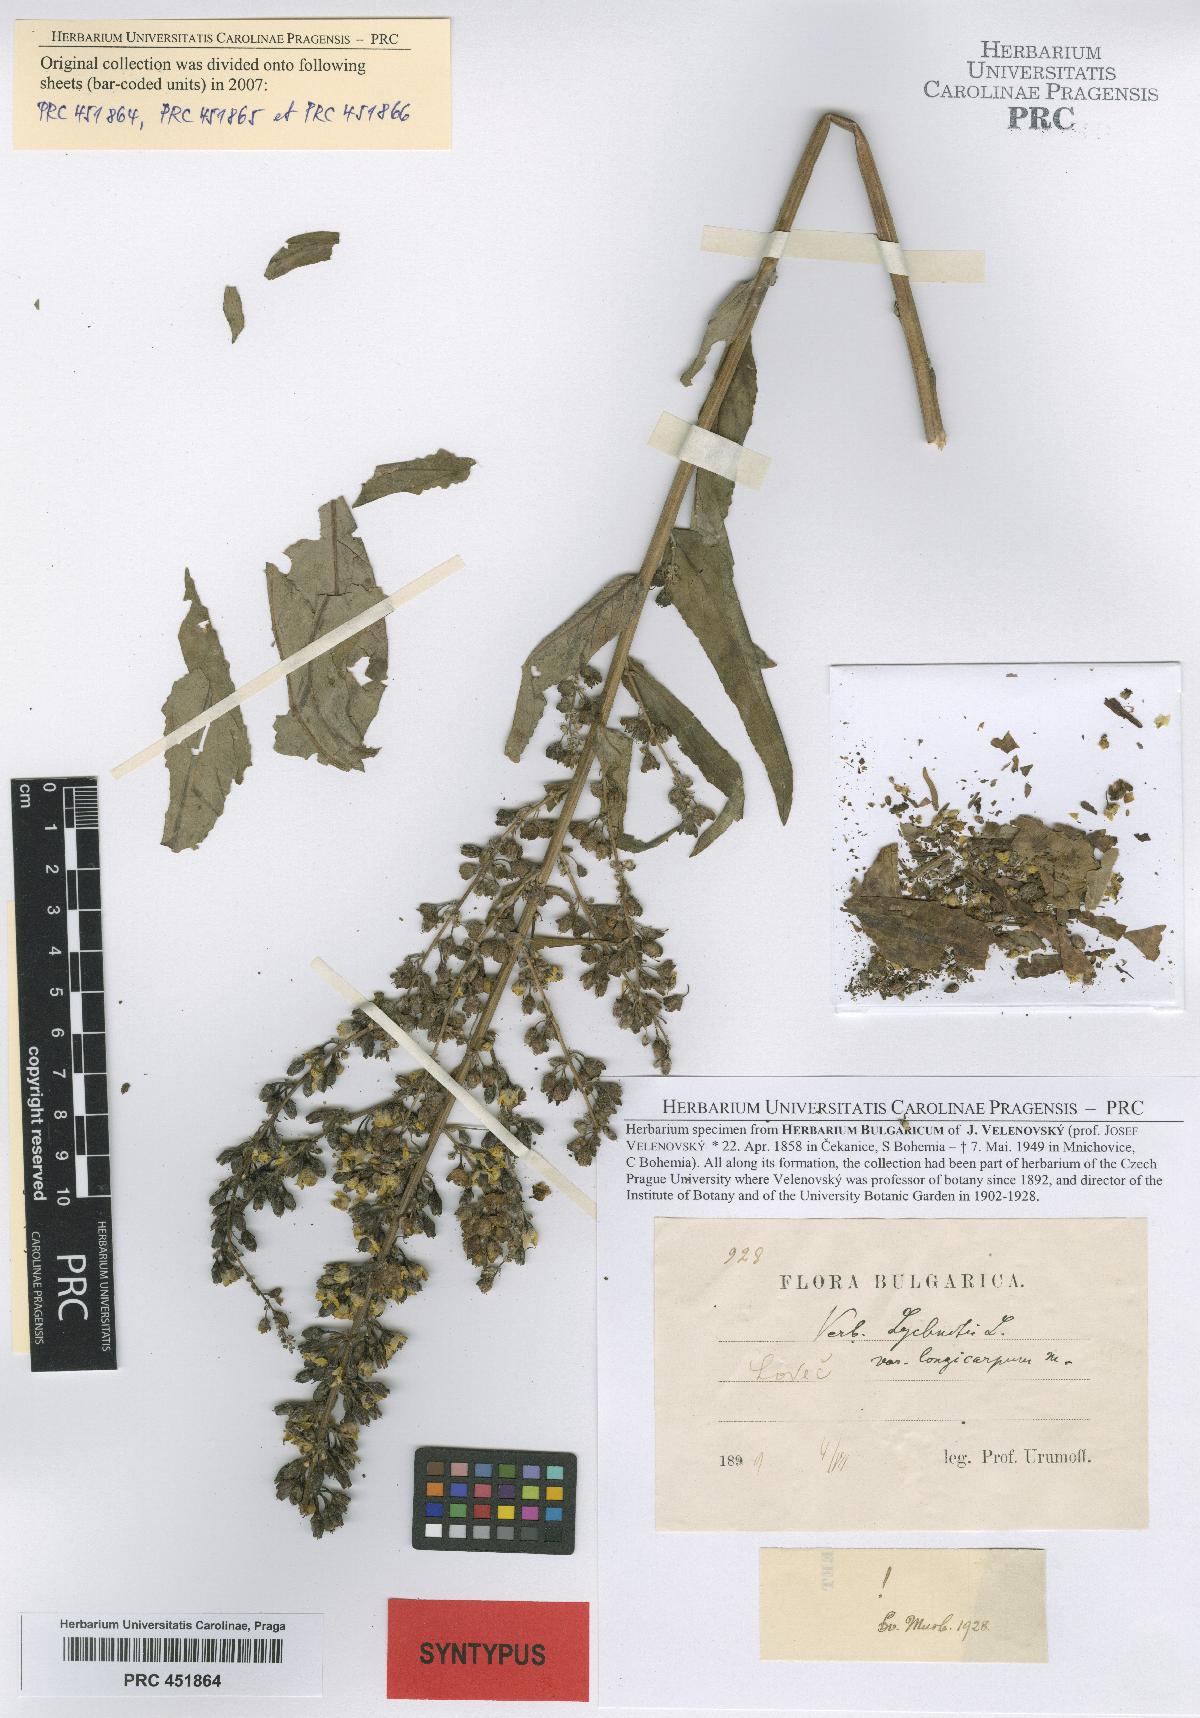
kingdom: Plantae
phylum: Tracheophyta
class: Magnoliopsida
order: Lamiales
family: Scrophulariaceae
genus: Verbascum
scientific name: Verbascum lychnitis
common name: White mullein
